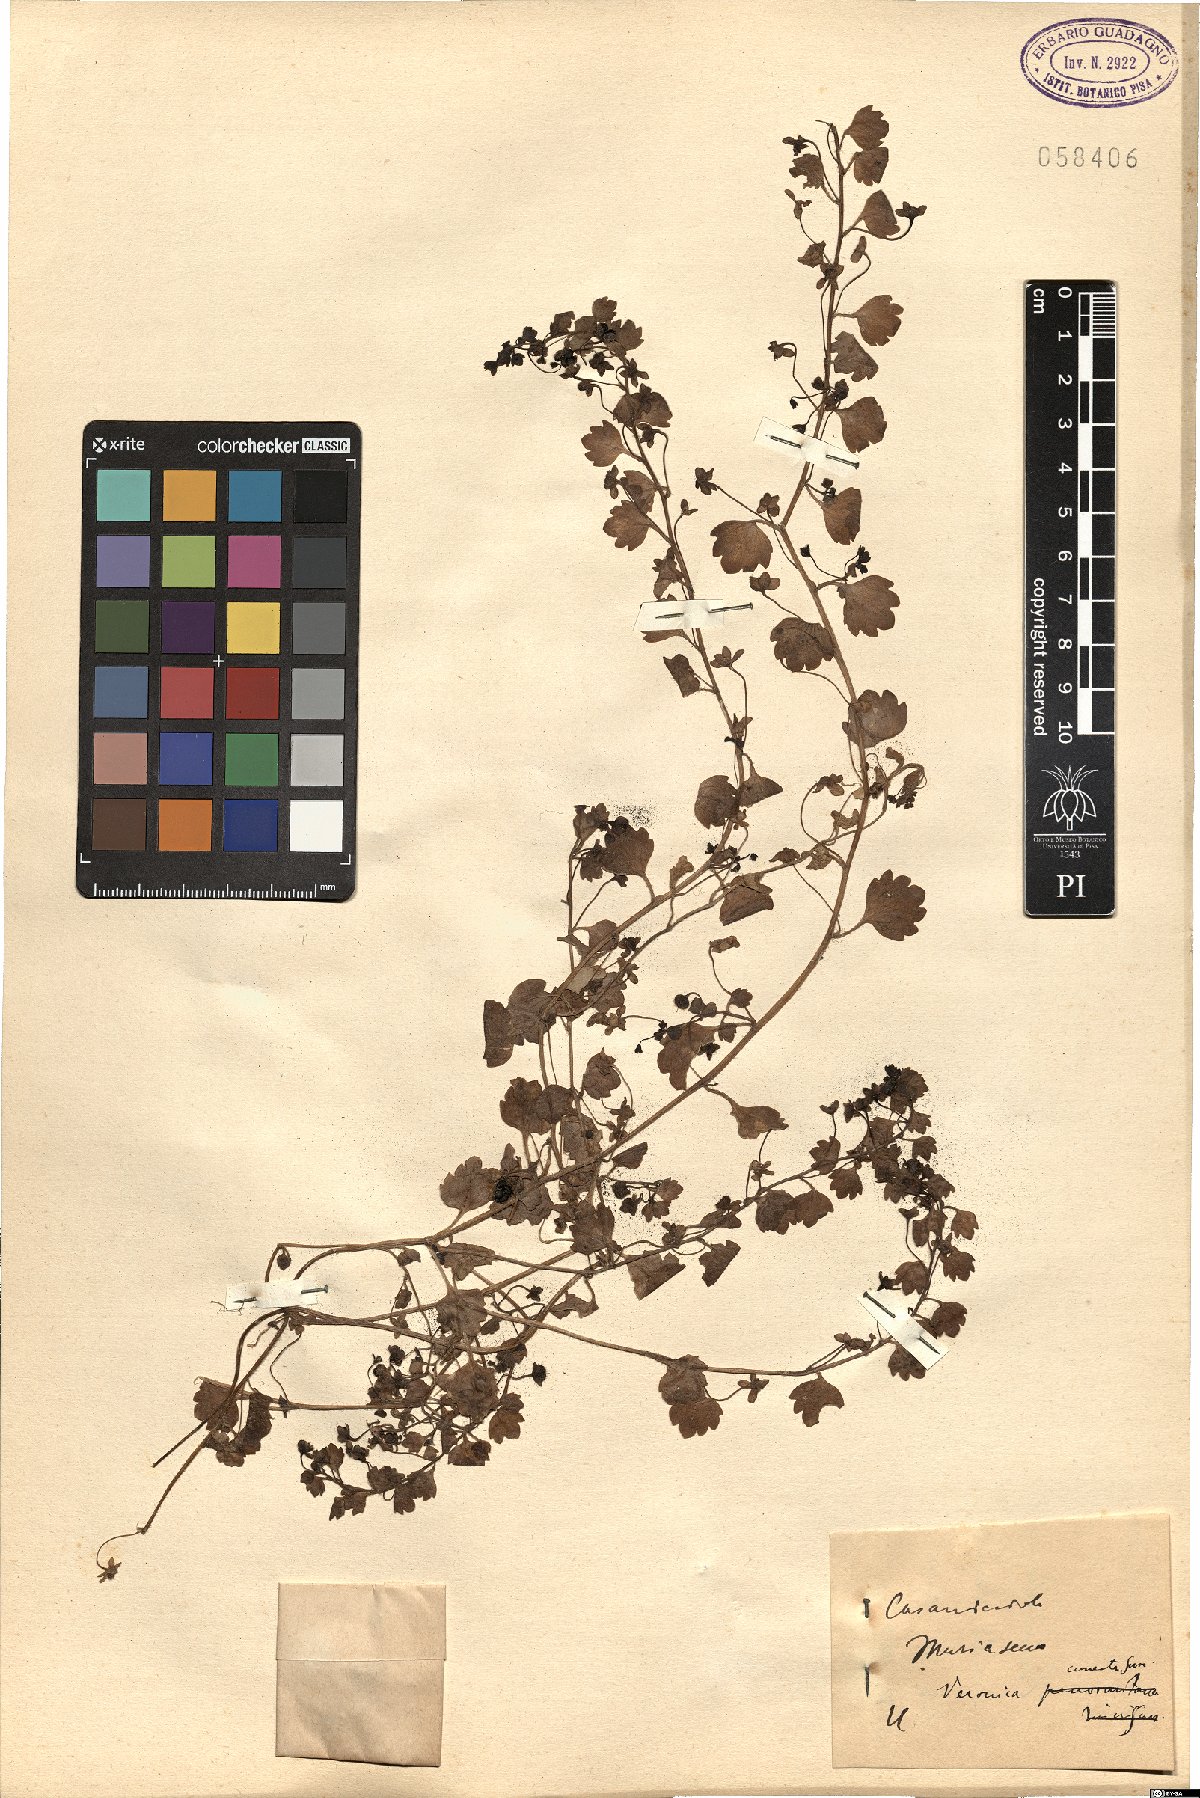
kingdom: Plantae
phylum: Tracheophyta
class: Magnoliopsida
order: Lamiales
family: Plantaginaceae
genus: Veronica
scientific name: Veronica cymbalaria
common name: Pale speedwell
